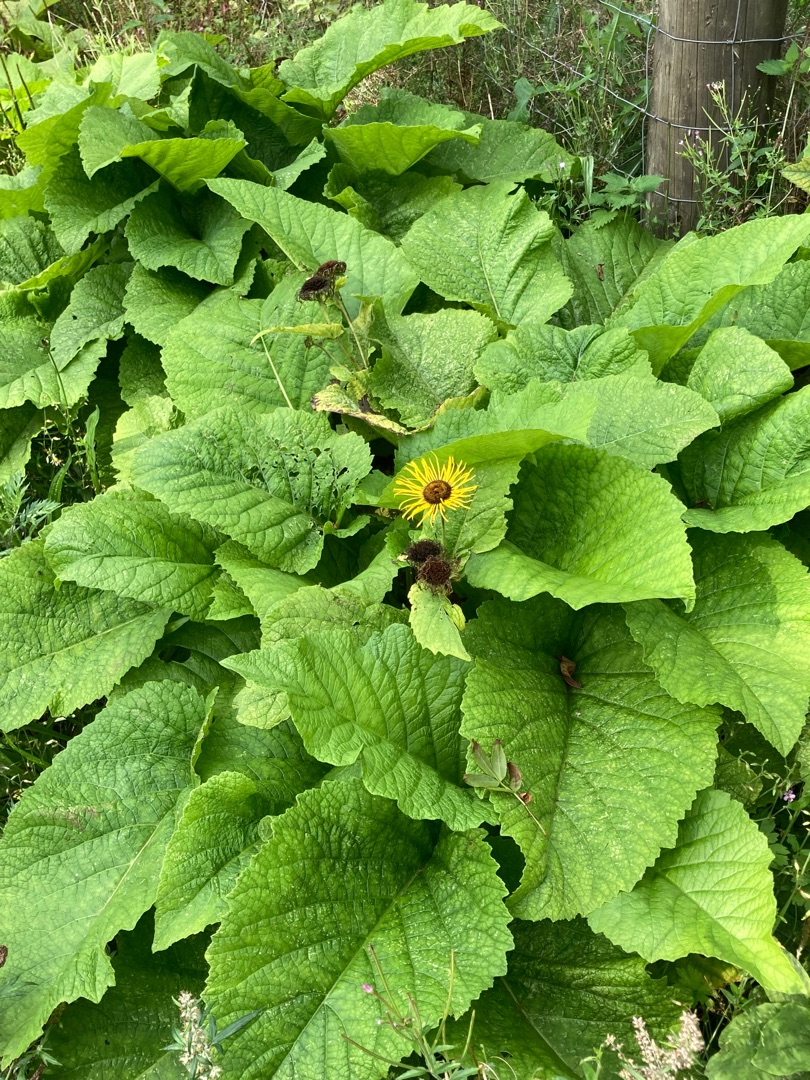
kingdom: Plantae
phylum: Tracheophyta
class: Magnoliopsida
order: Asterales
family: Asteraceae
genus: Telekia
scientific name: Telekia speciosa
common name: Tusindstråle
